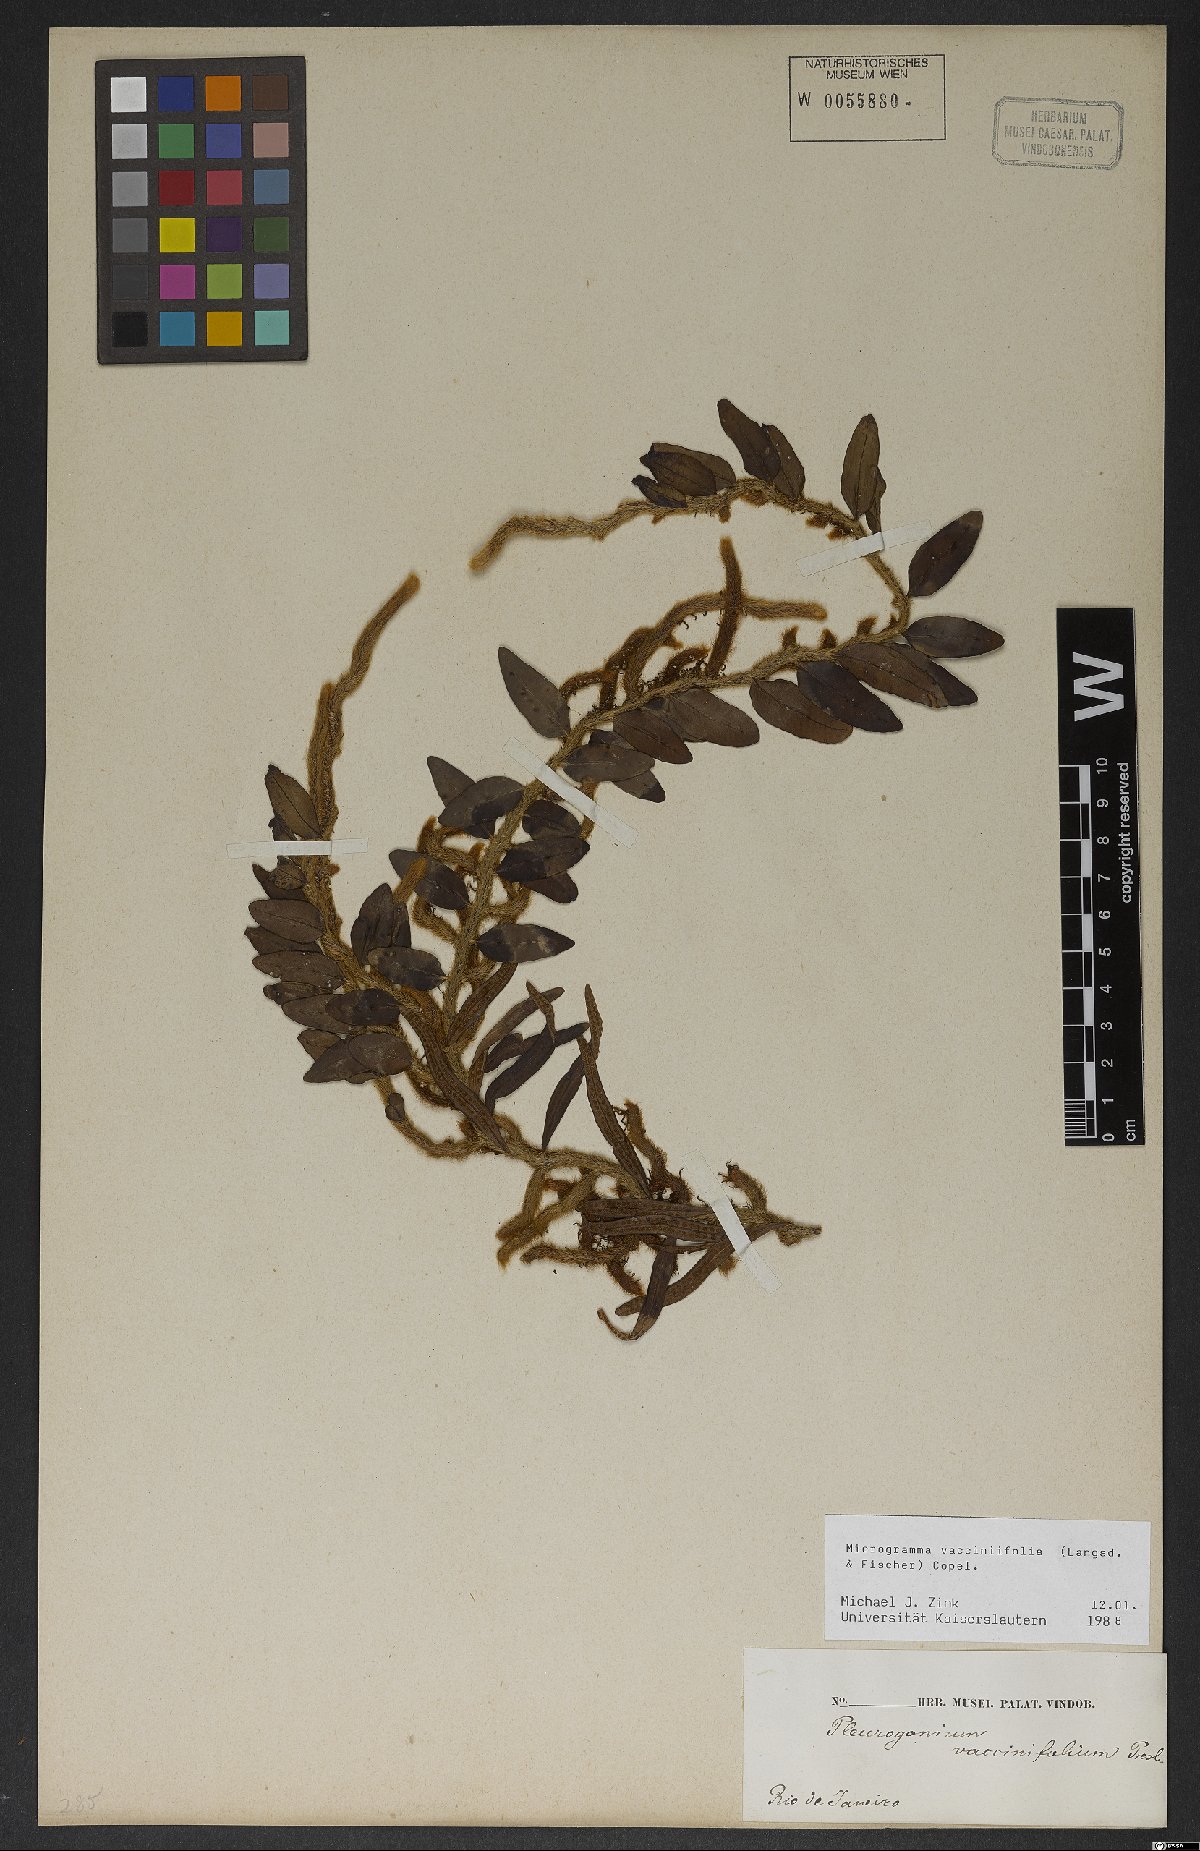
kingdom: Plantae
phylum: Tracheophyta
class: Polypodiopsida
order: Polypodiales
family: Polypodiaceae
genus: Microgramma
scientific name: Microgramma vaccinifolia
